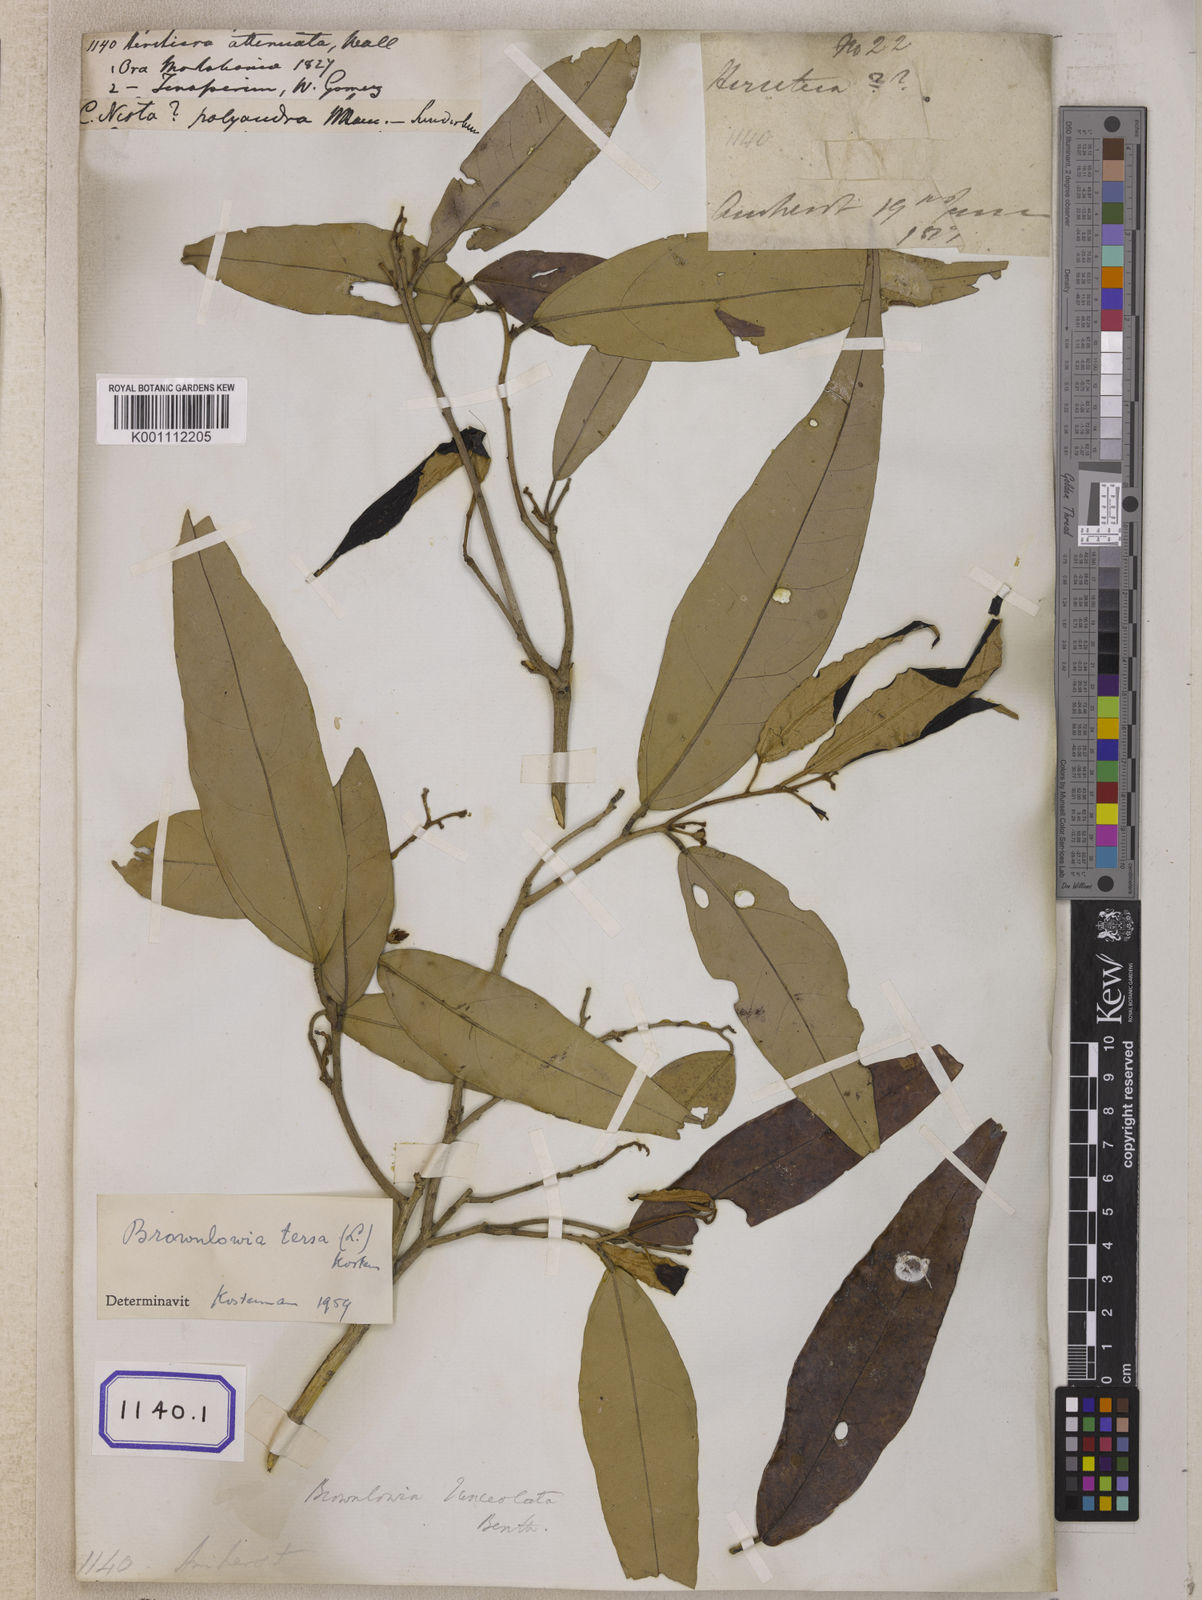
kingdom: Plantae
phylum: Tracheophyta
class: Magnoliopsida
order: Malvales
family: Malvaceae
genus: Brownlowia
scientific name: Brownlowia tersa
